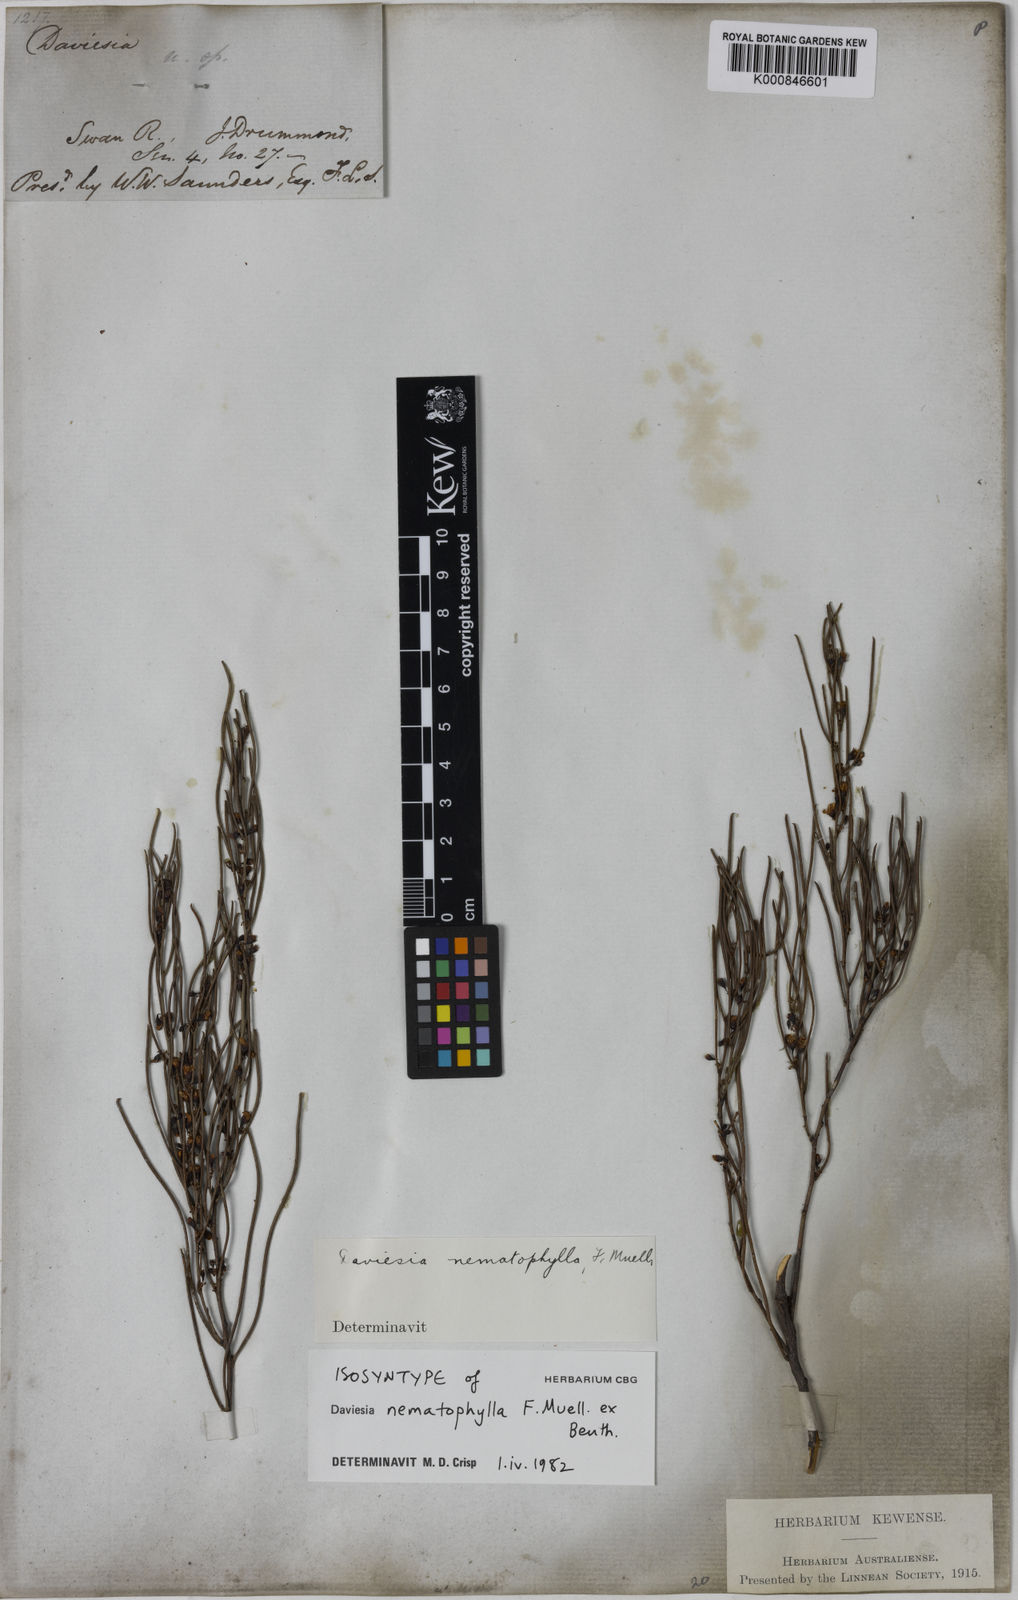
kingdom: Plantae
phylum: Tracheophyta
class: Magnoliopsida
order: Fabales
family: Fabaceae
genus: Daviesia
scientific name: Daviesia nematophylla
